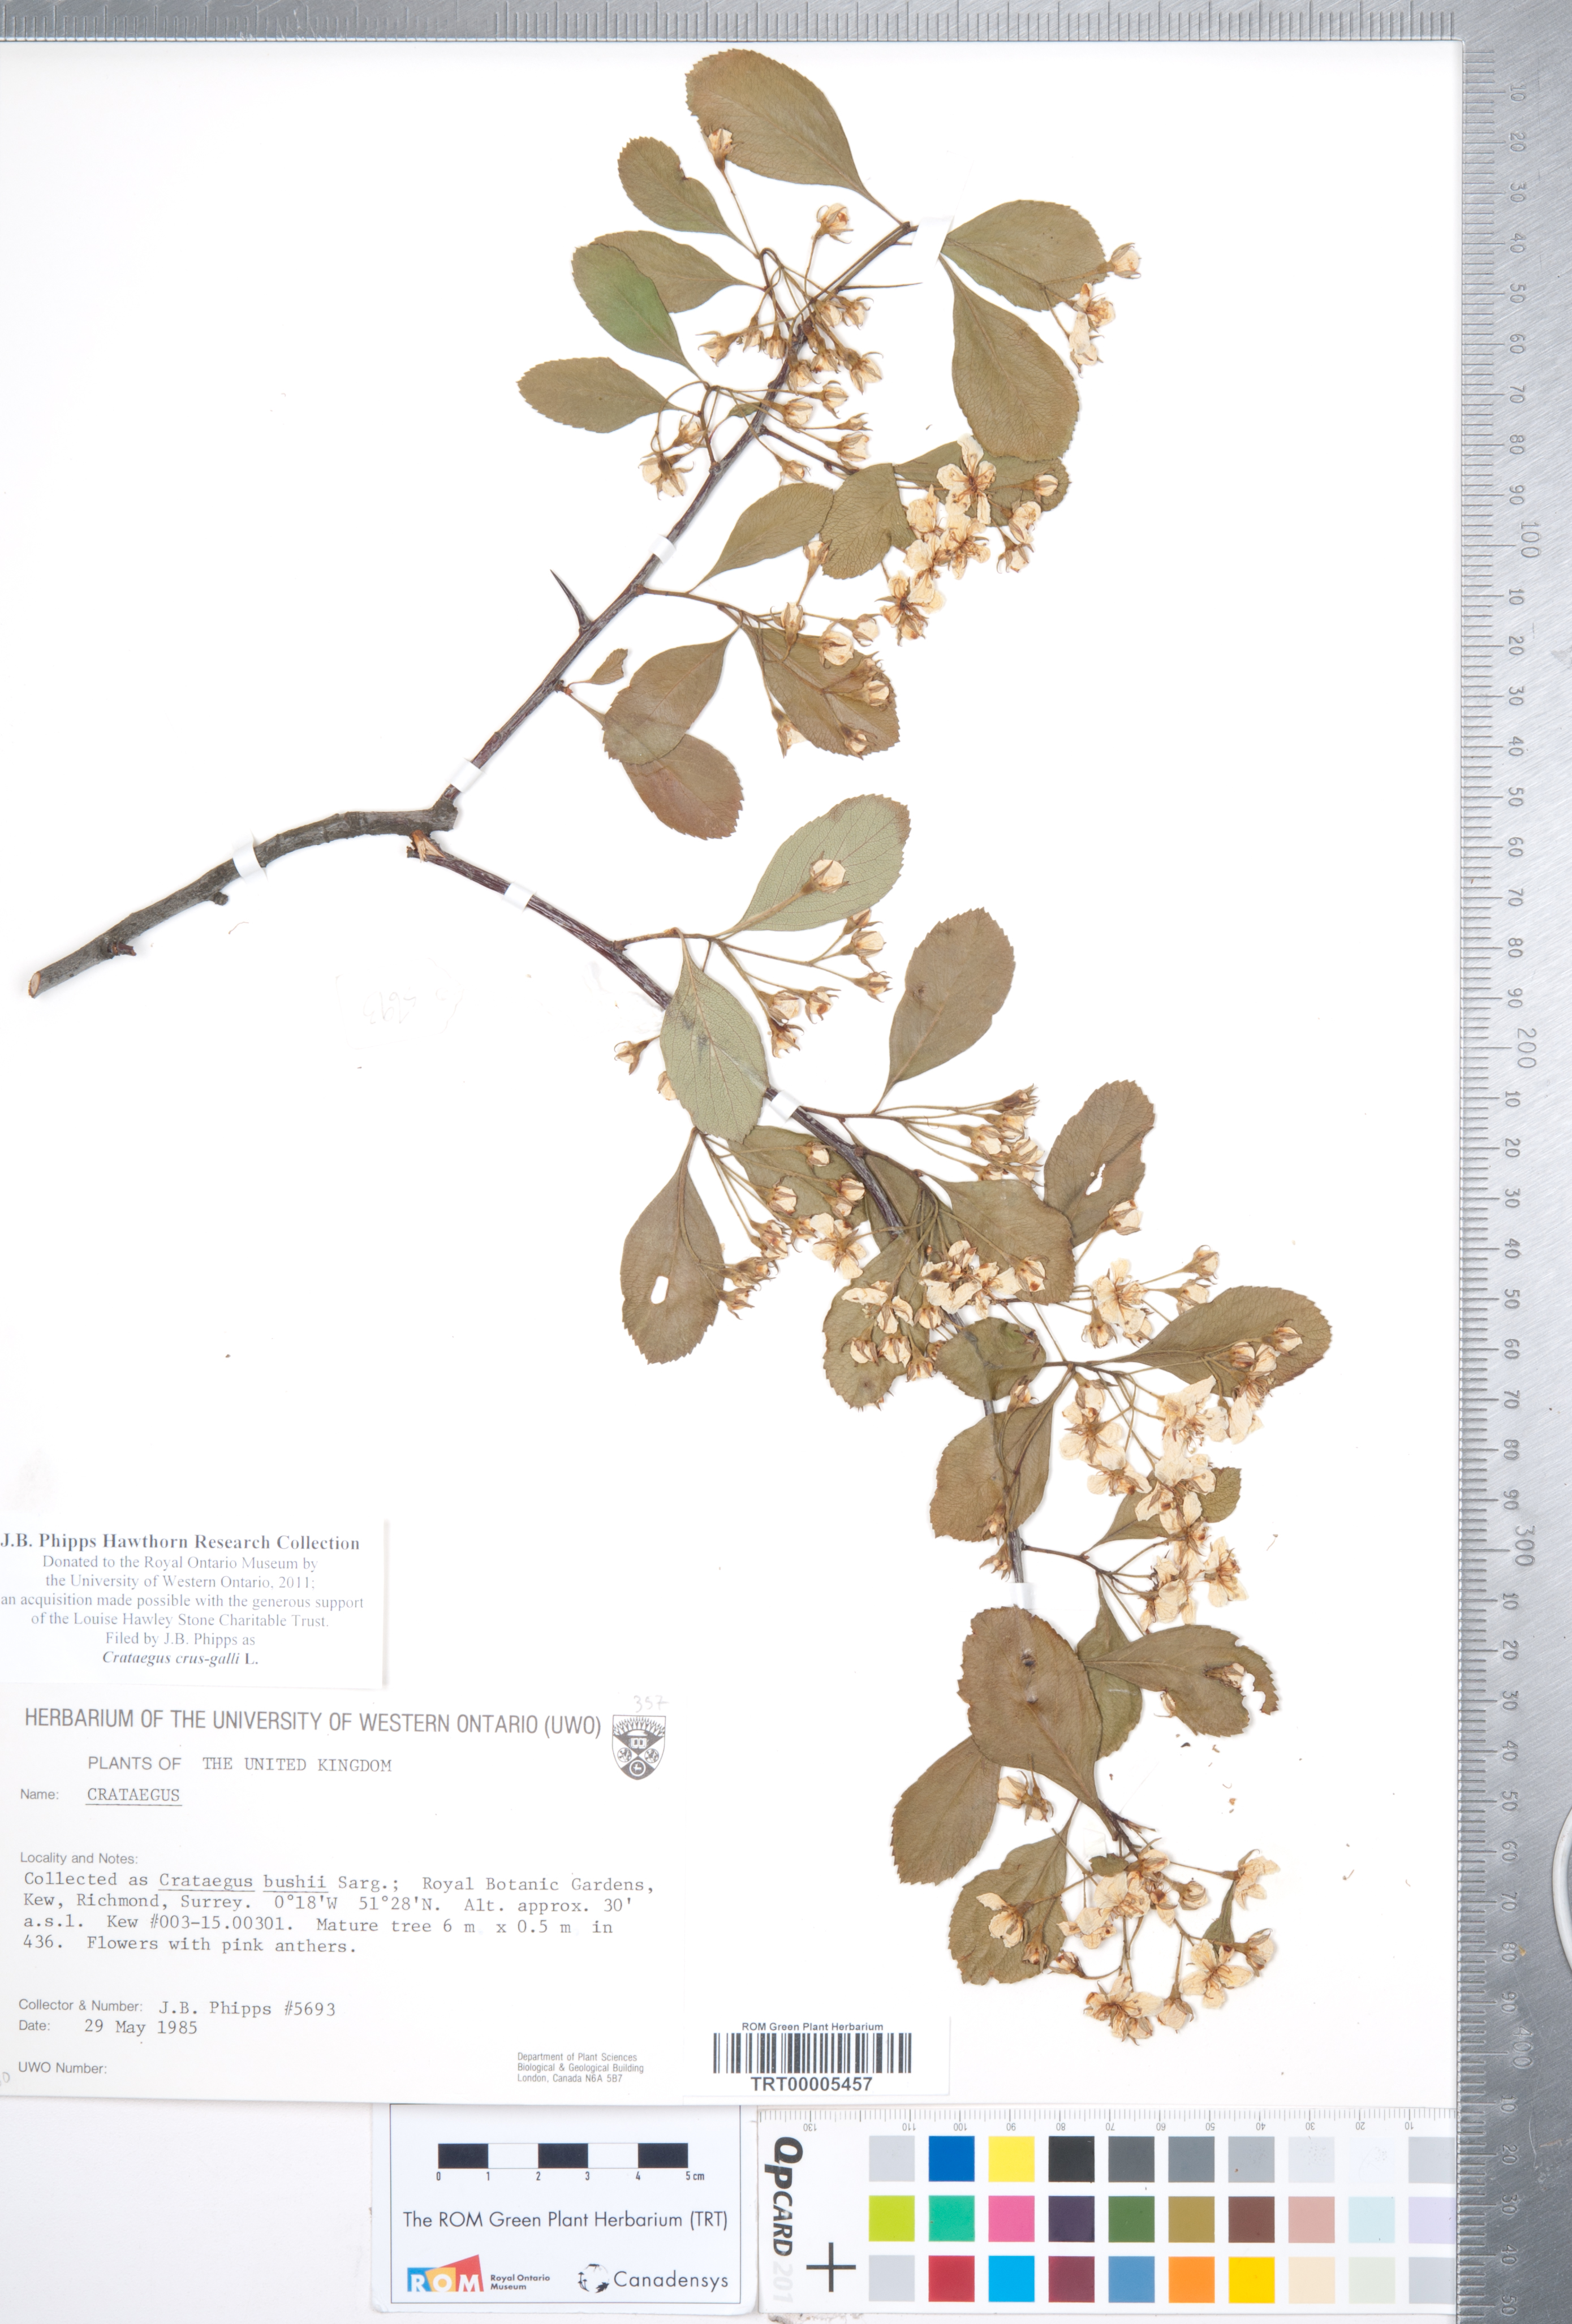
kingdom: Plantae
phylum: Tracheophyta
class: Magnoliopsida
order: Rosales
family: Rosaceae
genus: Crataegus
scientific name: Crataegus crus-galli
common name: Cockspurthorn
